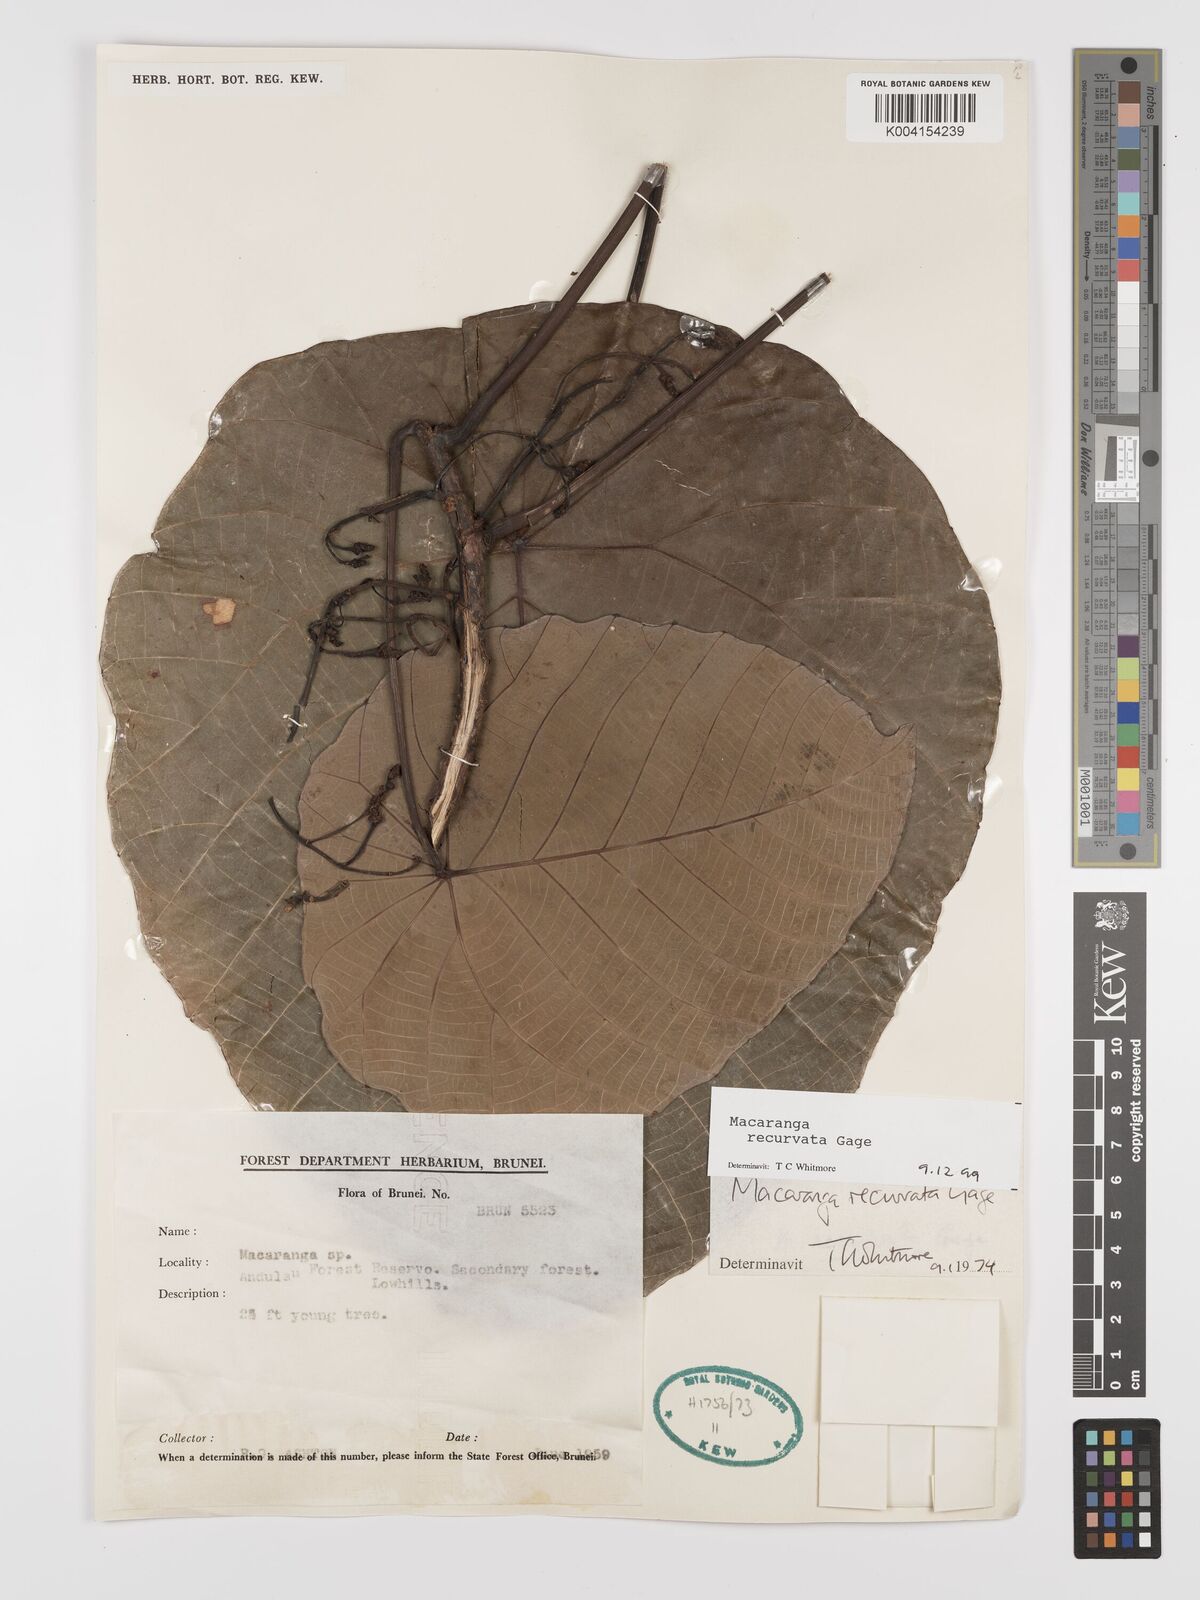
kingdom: Plantae
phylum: Tracheophyta
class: Magnoliopsida
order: Malpighiales
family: Euphorbiaceae
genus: Macaranga
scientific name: Macaranga recurvata
